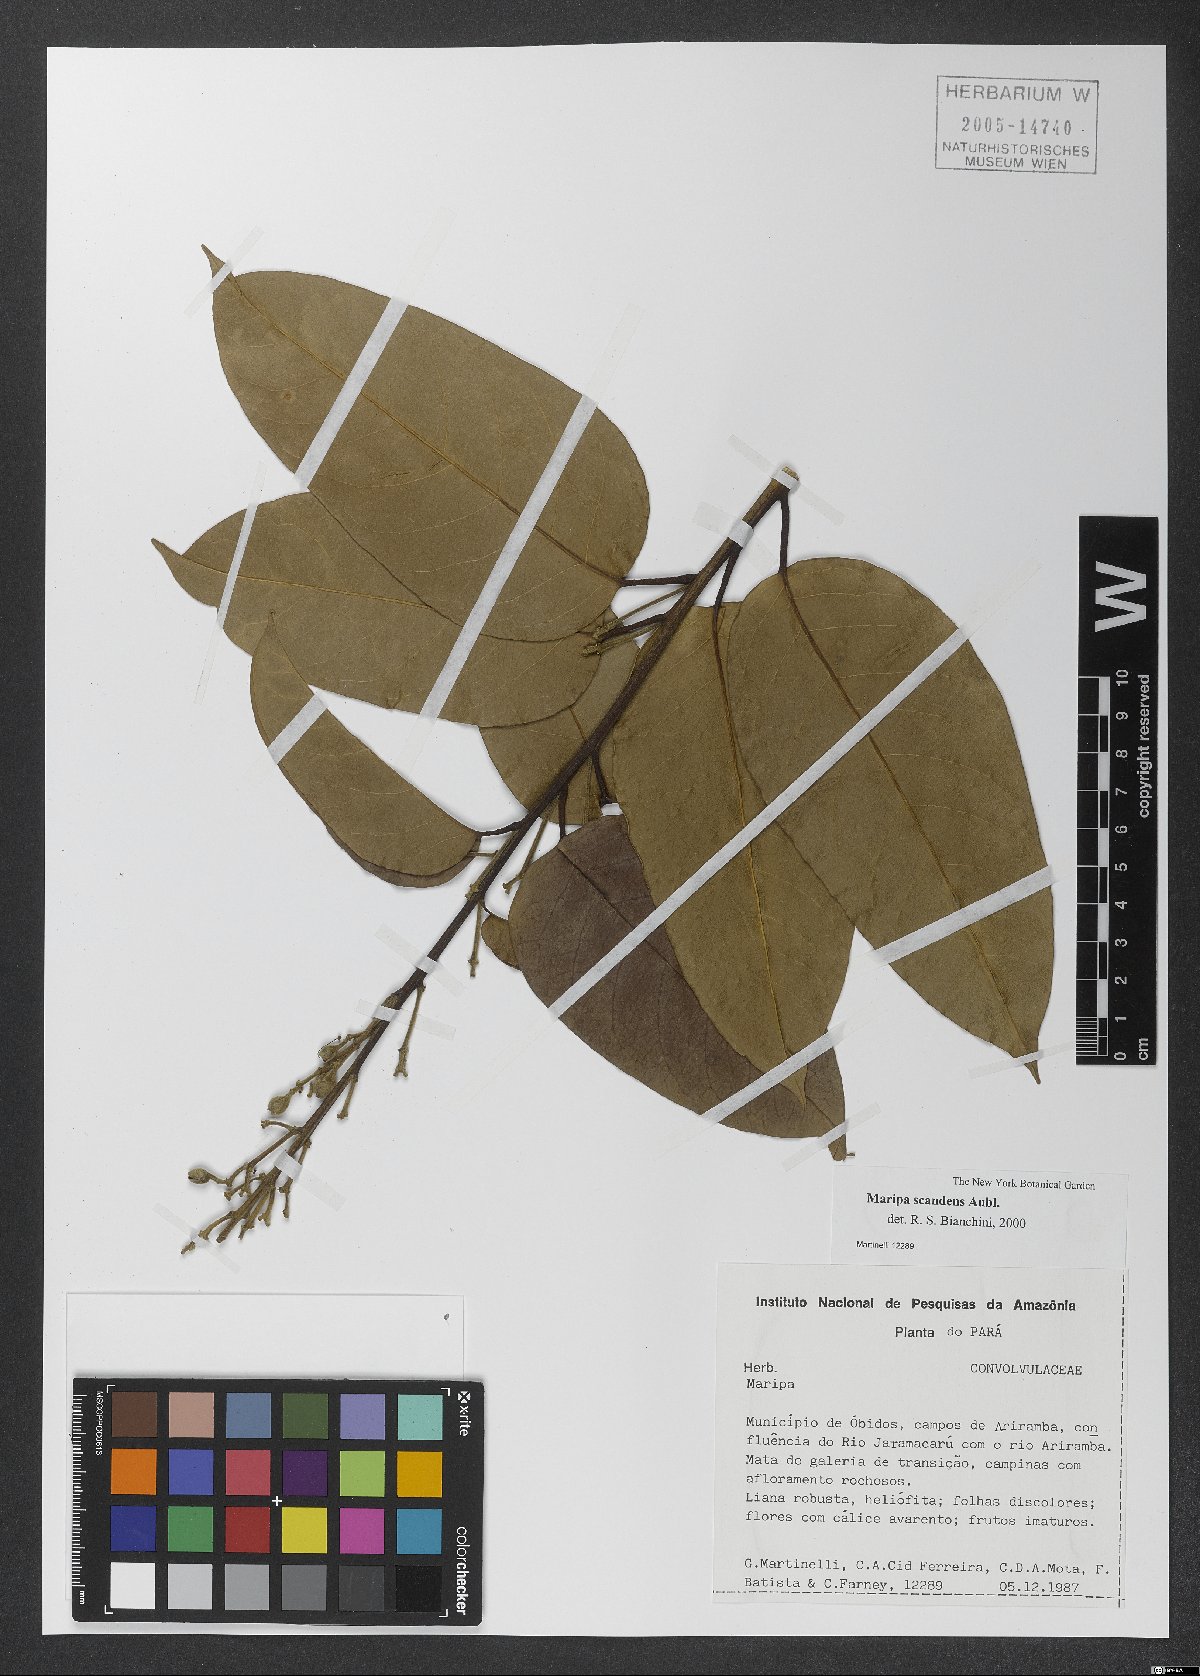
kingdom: Plantae
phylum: Tracheophyta
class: Magnoliopsida
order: Solanales
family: Convolvulaceae
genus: Maripa
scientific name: Maripa scandens
